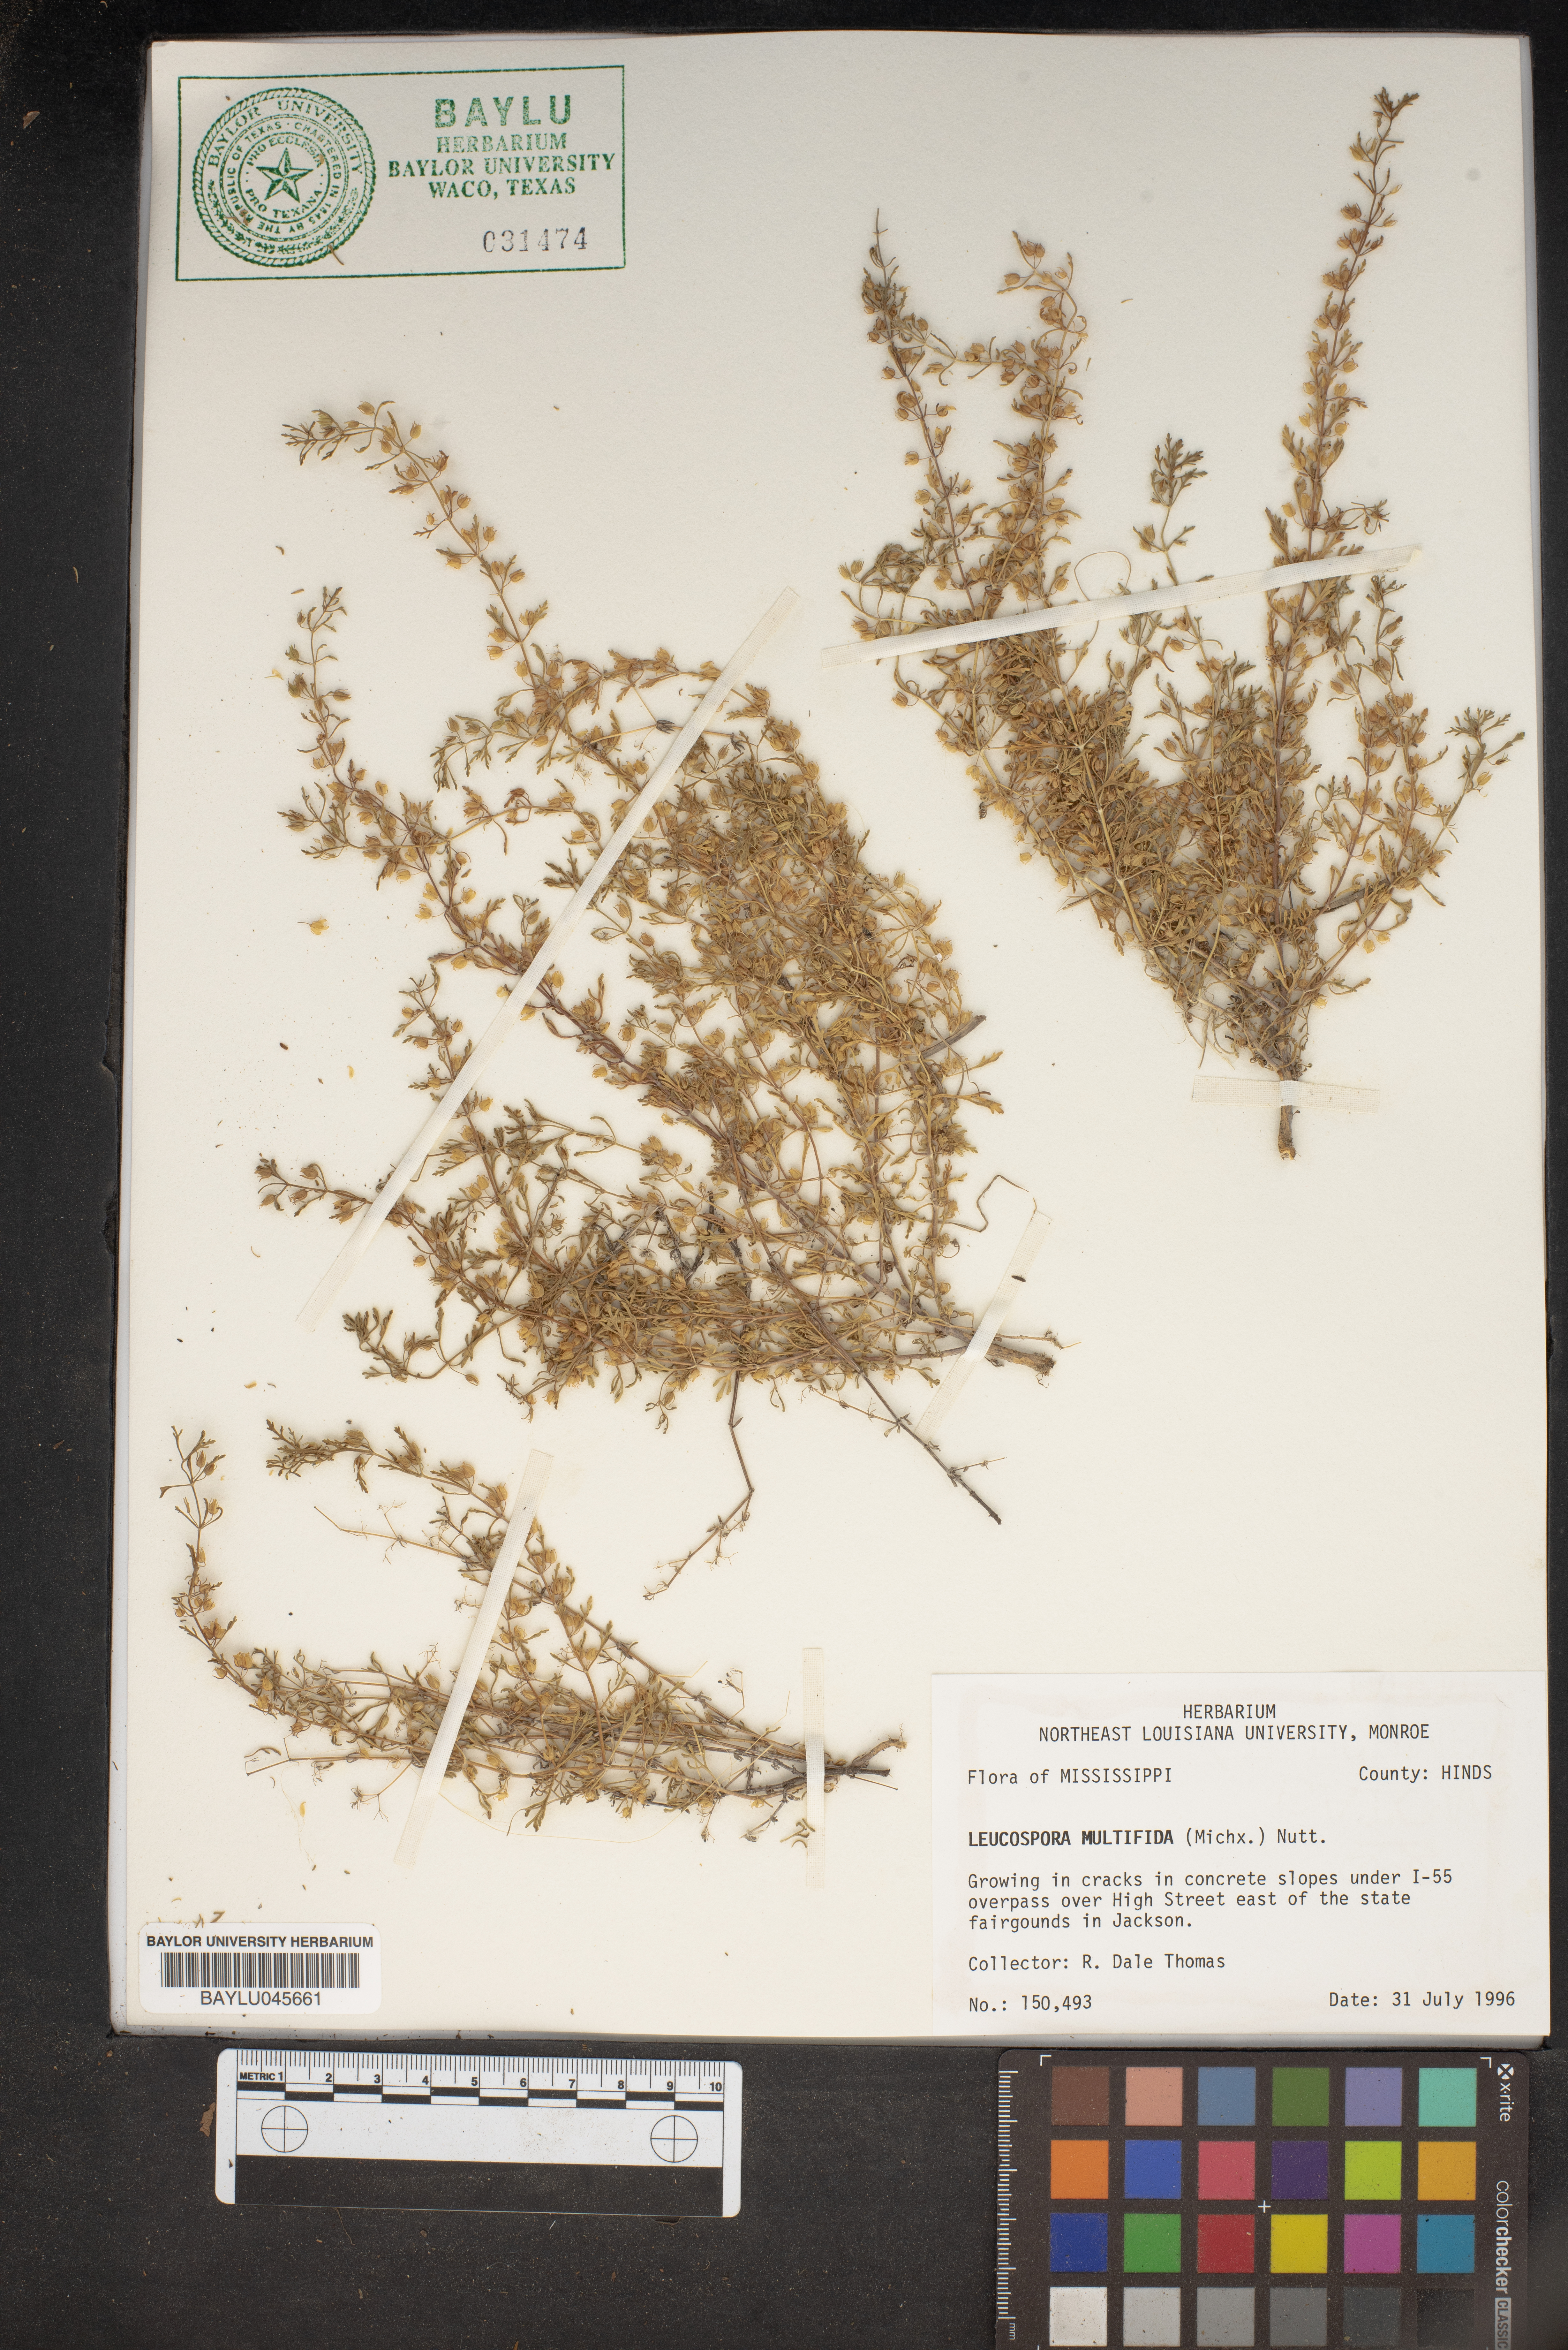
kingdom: Plantae
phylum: Tracheophyta
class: Magnoliopsida
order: Lamiales
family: Plantaginaceae
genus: Leucospora
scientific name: Leucospora multifida
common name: Narrow-leaf paleseed
